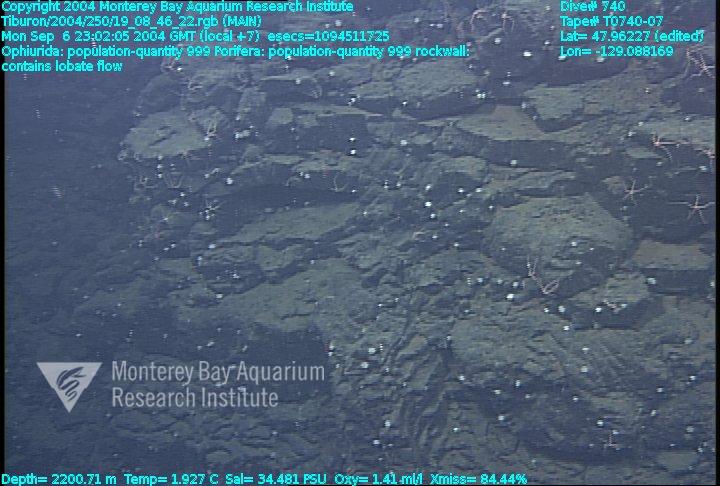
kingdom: Animalia
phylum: Porifera
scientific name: Porifera
